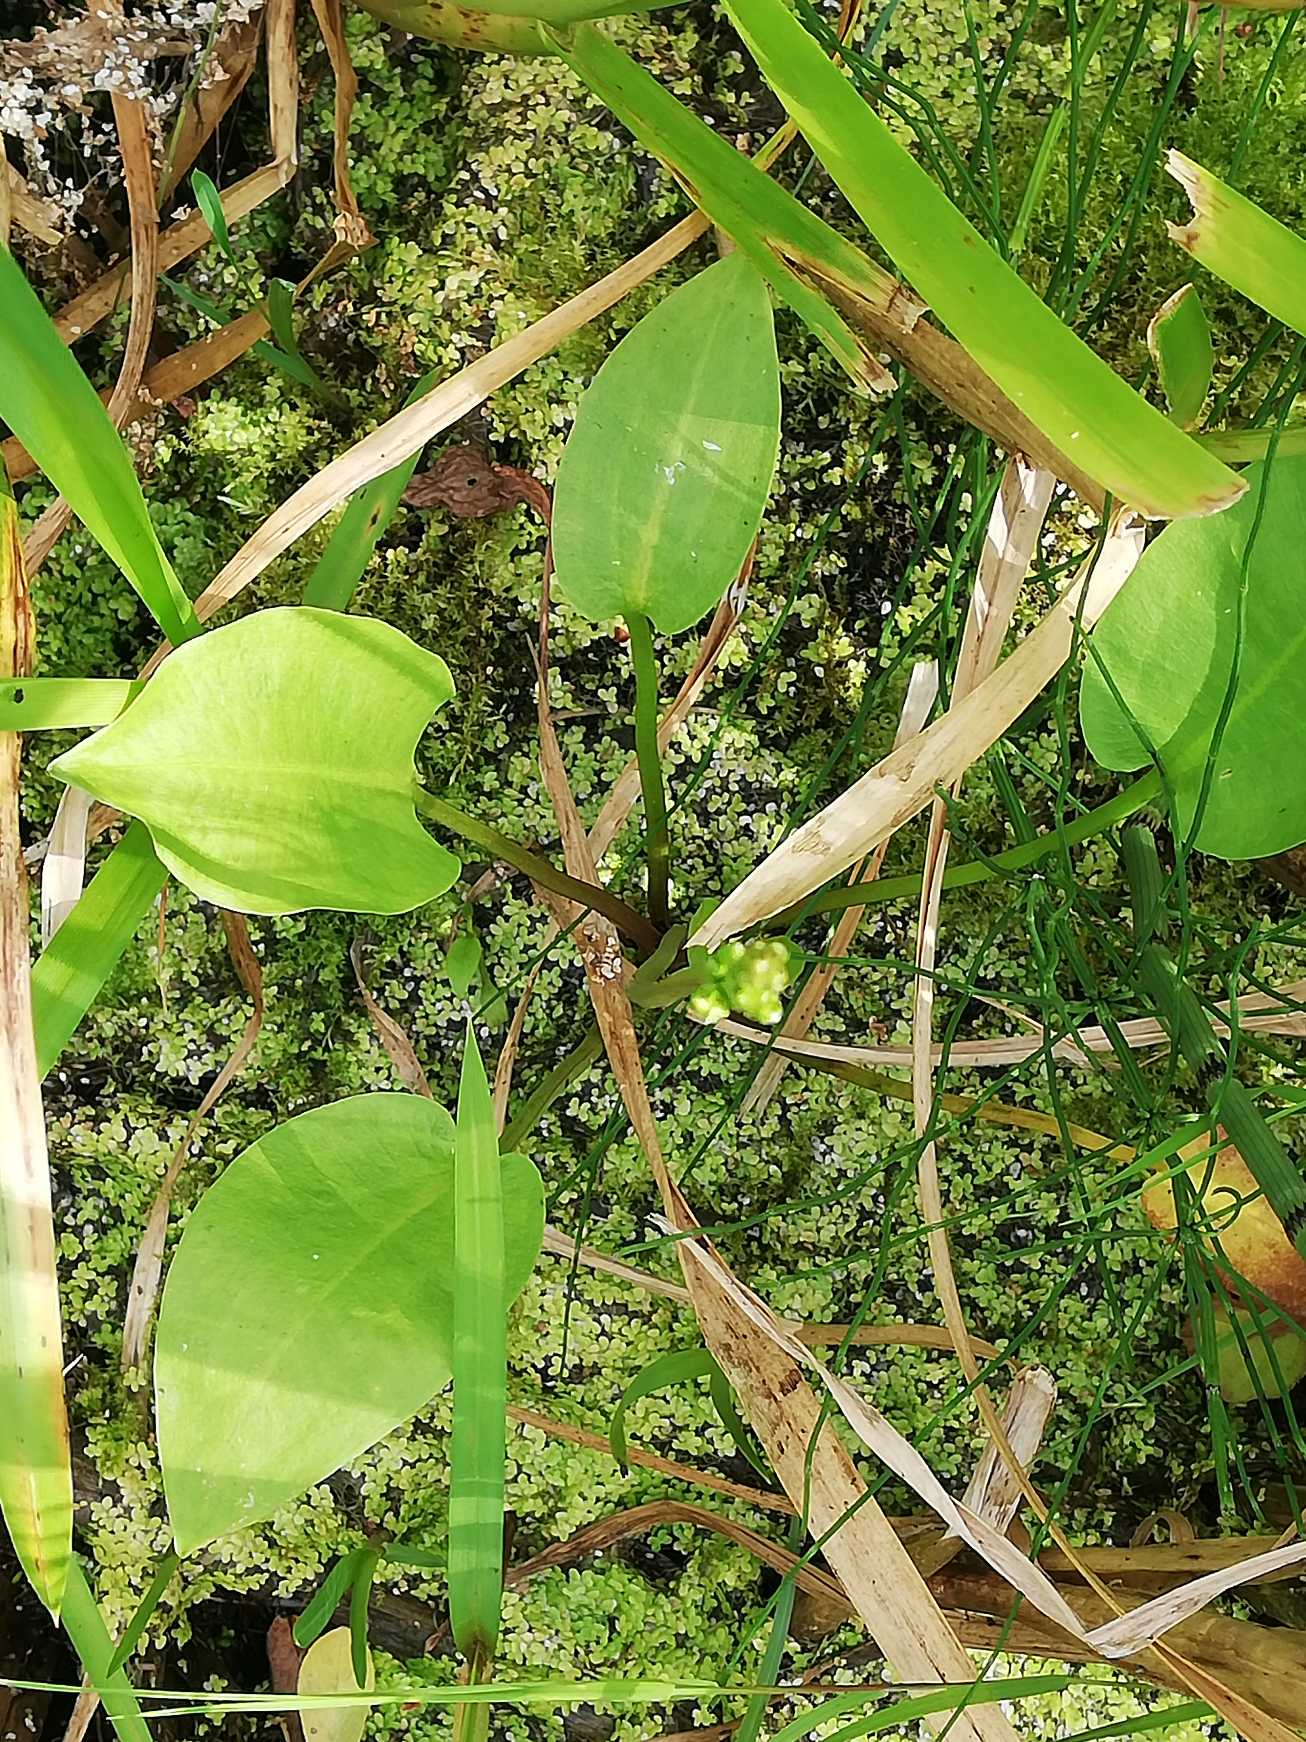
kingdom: Plantae
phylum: Tracheophyta
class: Liliopsida
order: Alismatales
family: Alismataceae
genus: Alisma
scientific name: Alisma plantago-aquatica
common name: Vejbred-skeblad
